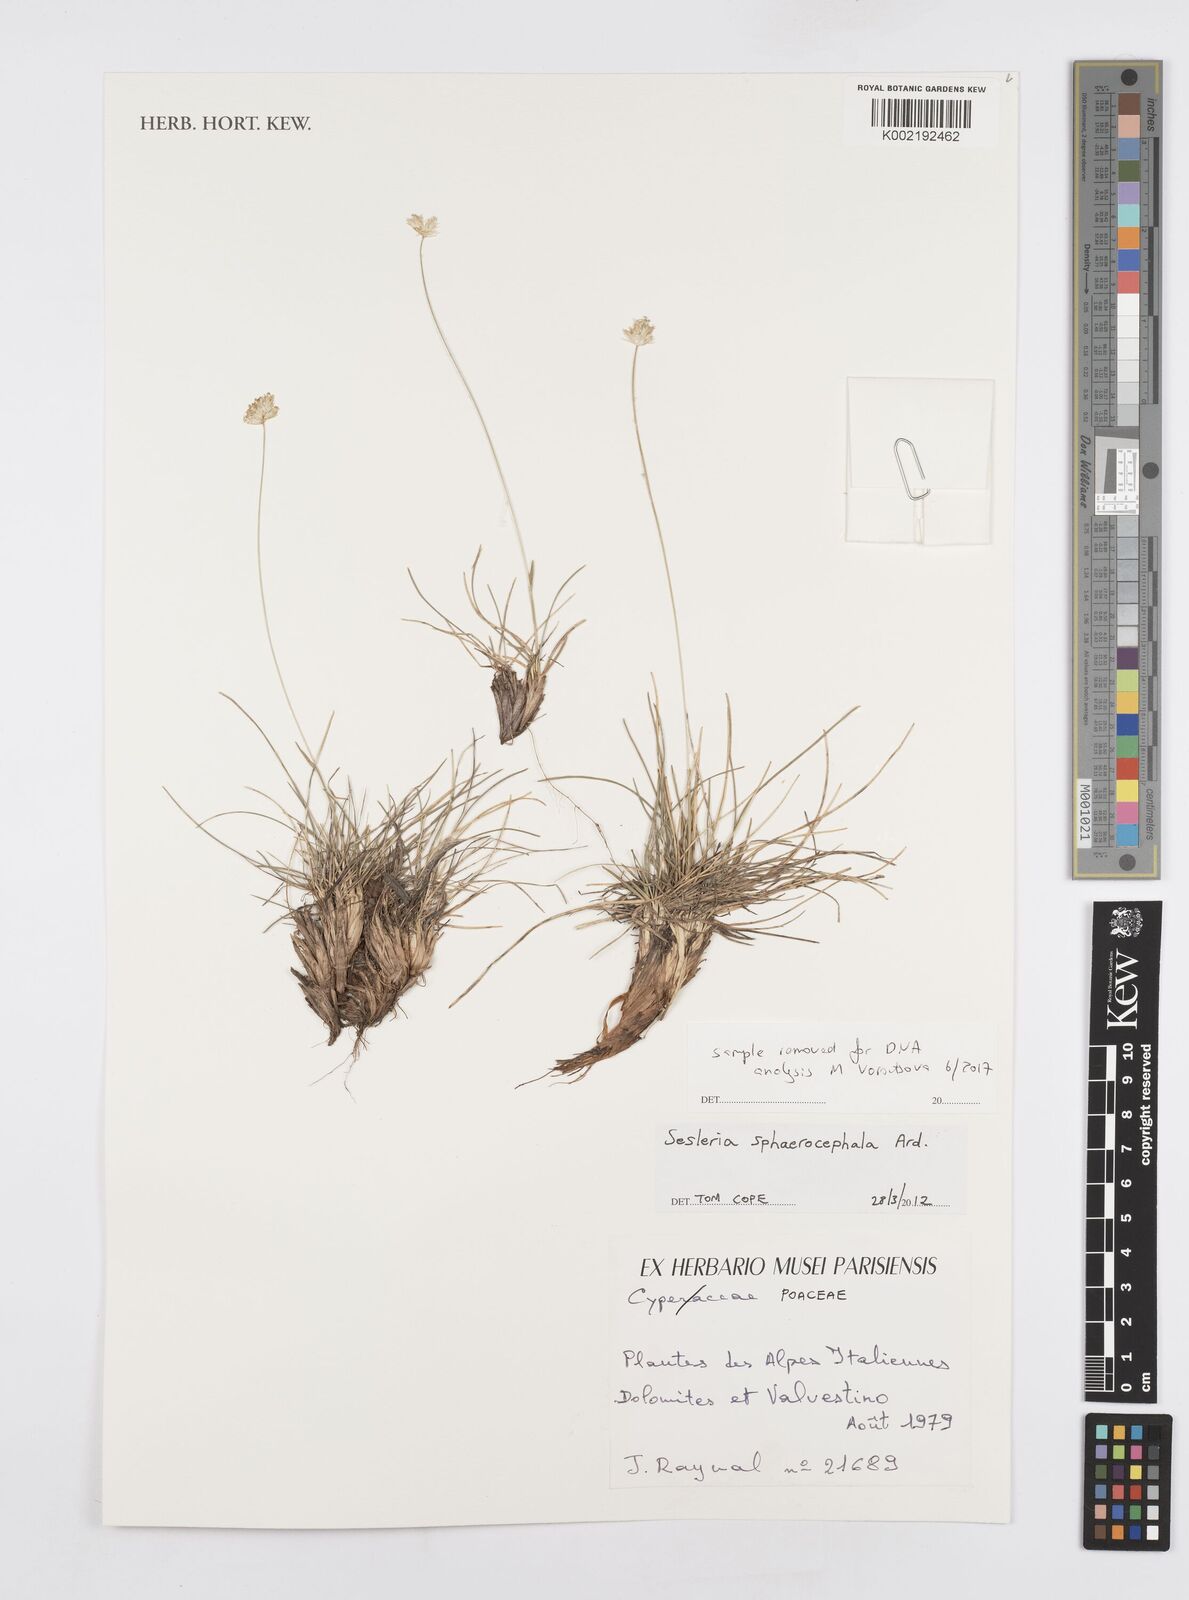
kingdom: Plantae
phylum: Tracheophyta
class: Liliopsida
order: Poales
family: Poaceae
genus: Sesleriella
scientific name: Sesleriella sphaerocephala
